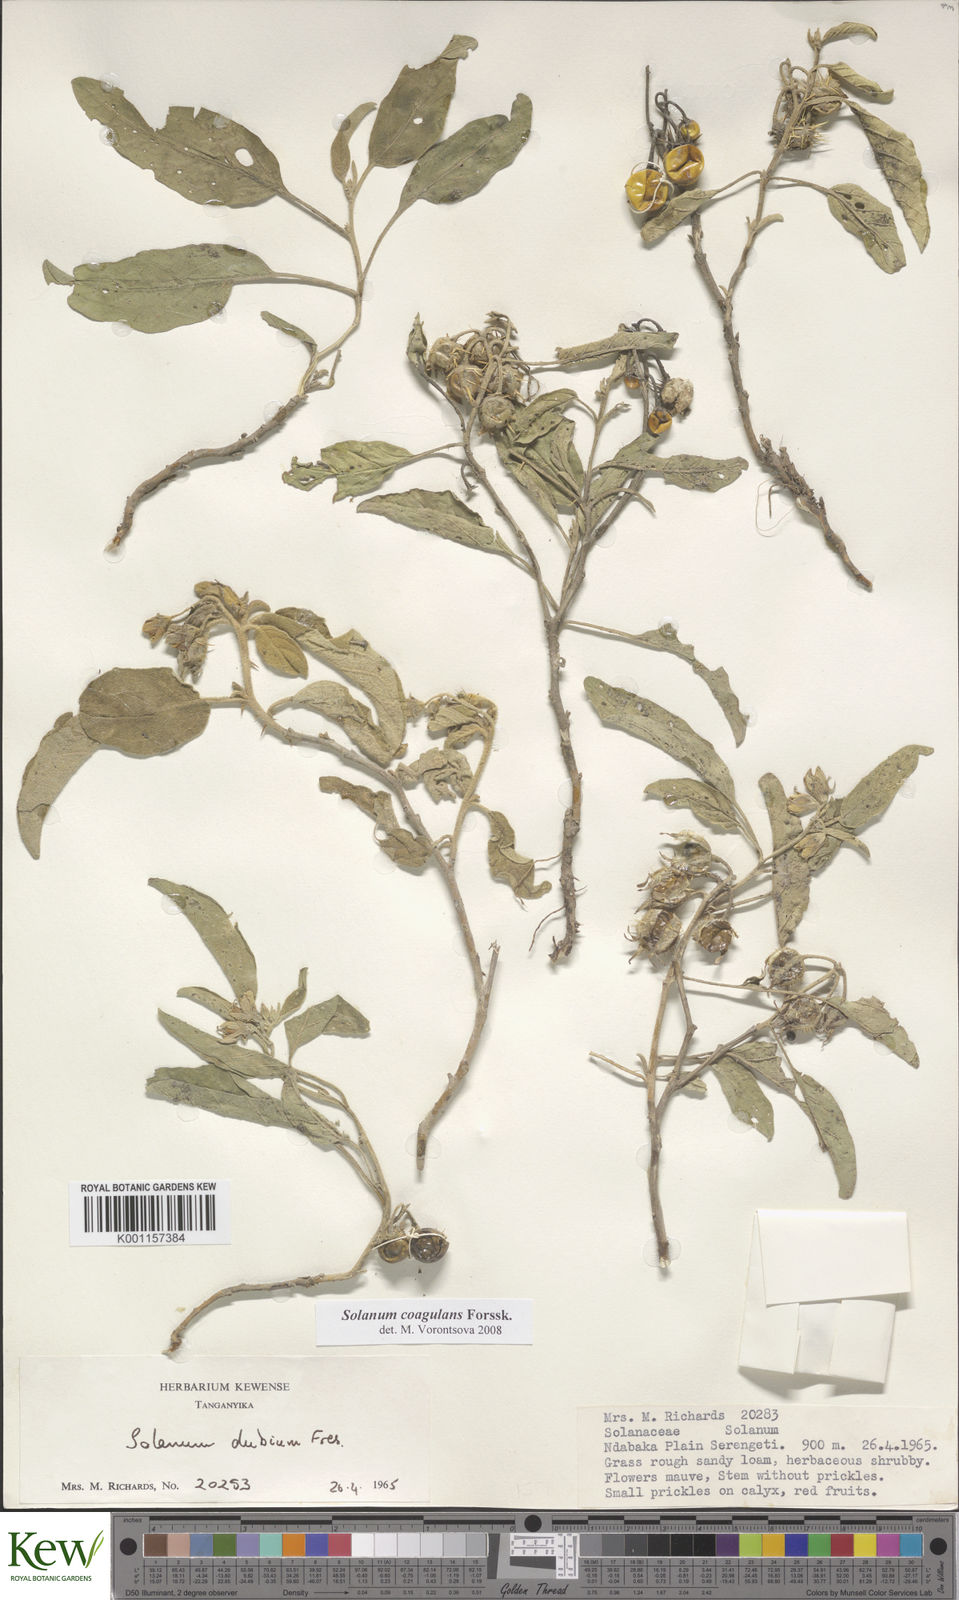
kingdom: Plantae
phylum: Tracheophyta
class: Magnoliopsida
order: Solanales
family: Solanaceae
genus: Solanum
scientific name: Solanum coagulans
